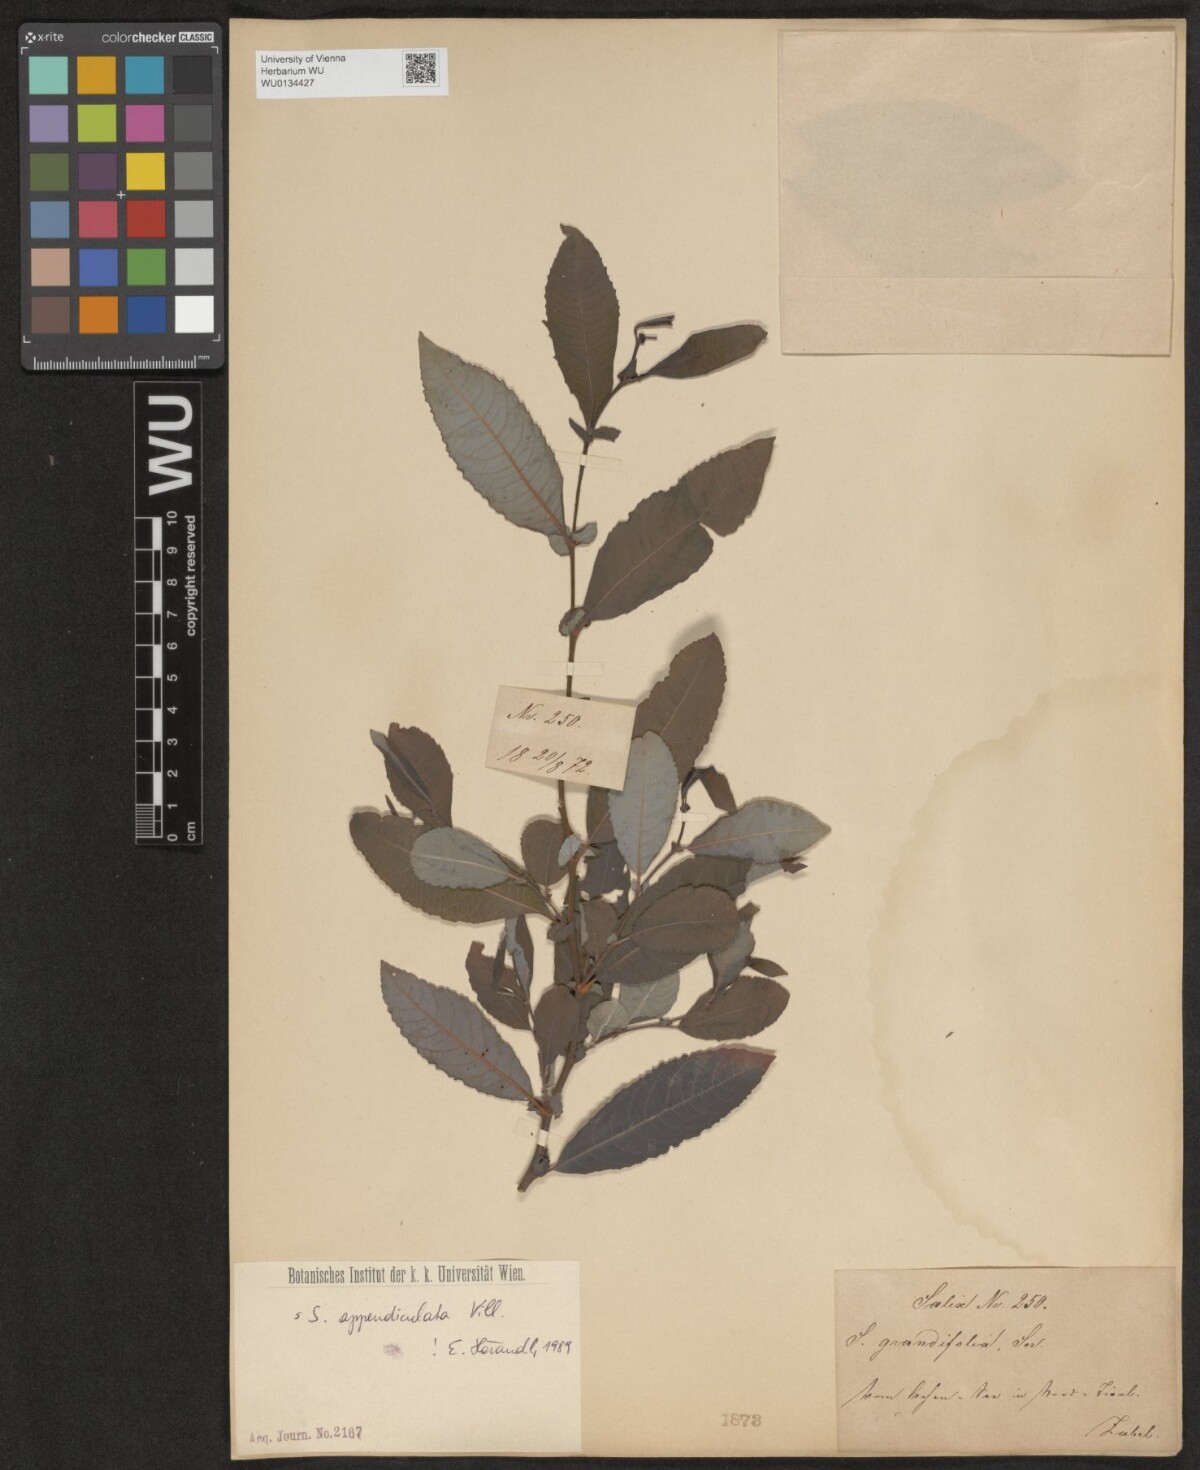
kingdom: Plantae
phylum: Tracheophyta
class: Magnoliopsida
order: Malpighiales
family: Salicaceae
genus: Salix
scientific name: Salix appendiculata
